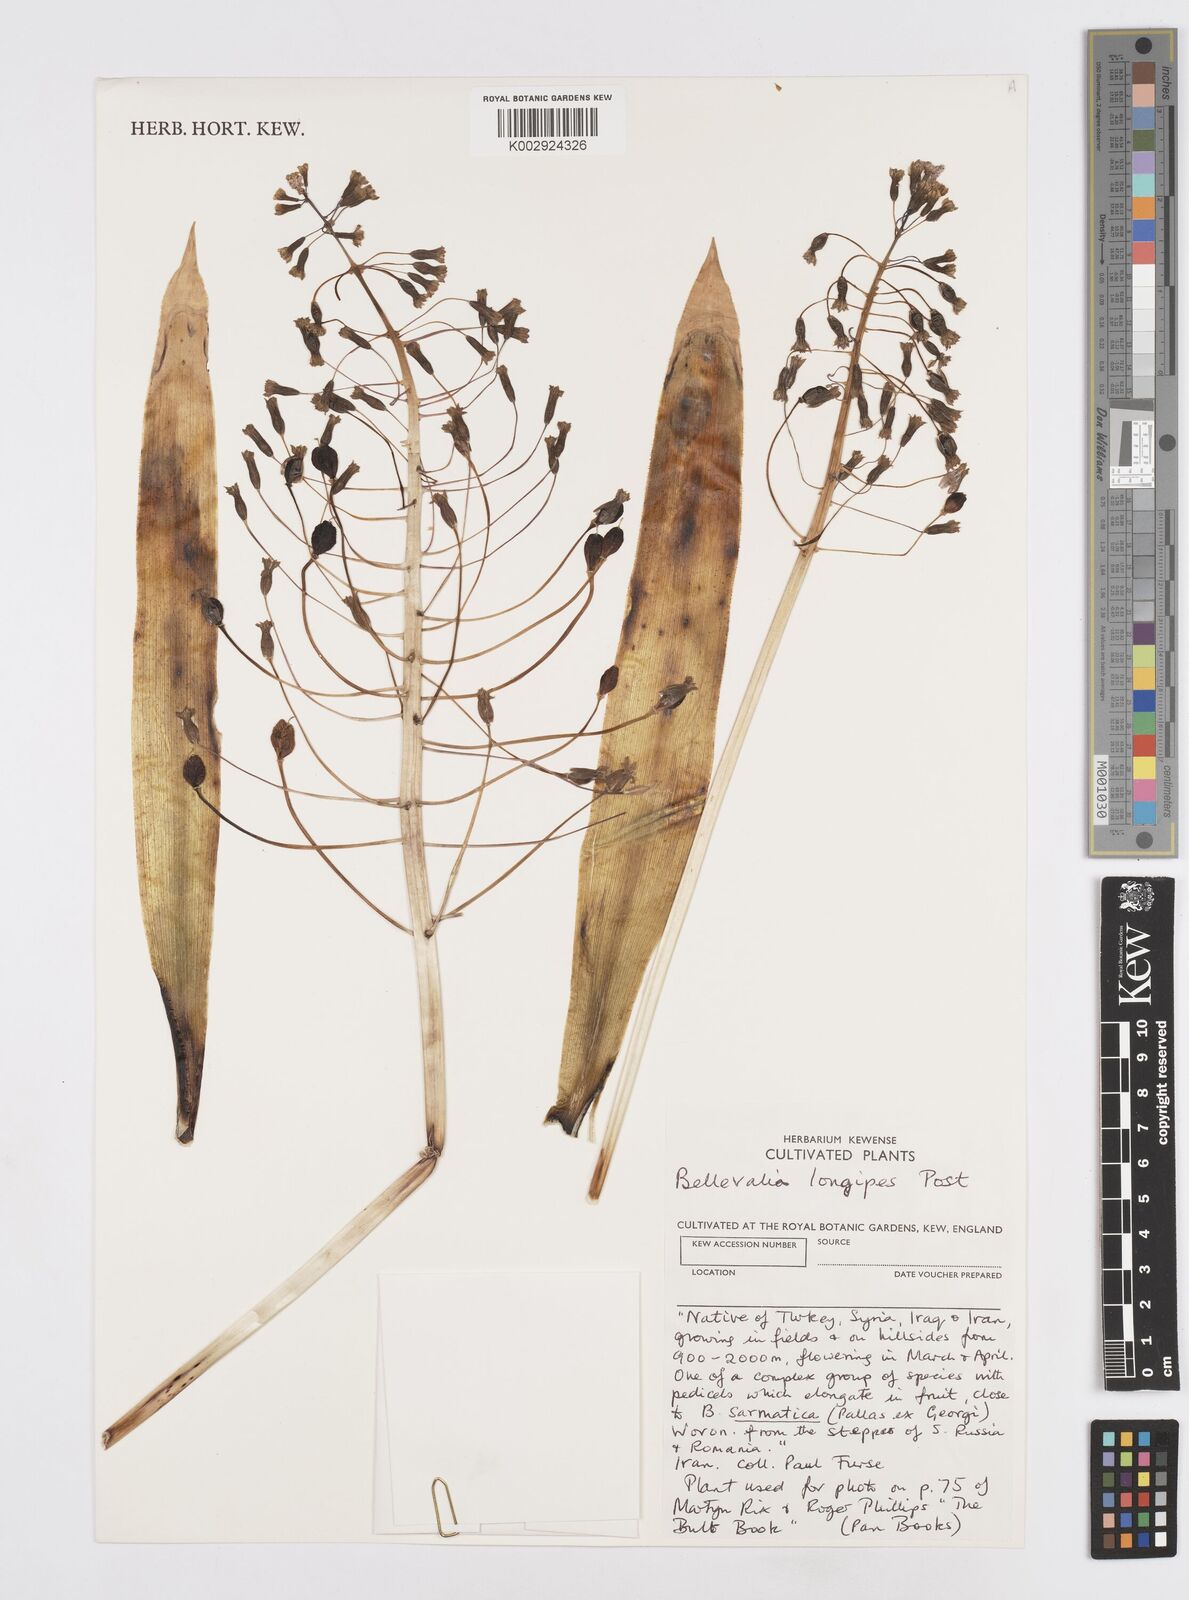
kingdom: Plantae
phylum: Tracheophyta
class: Liliopsida
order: Asparagales
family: Asparagaceae
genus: Bellevalia
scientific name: Bellevalia longipes
